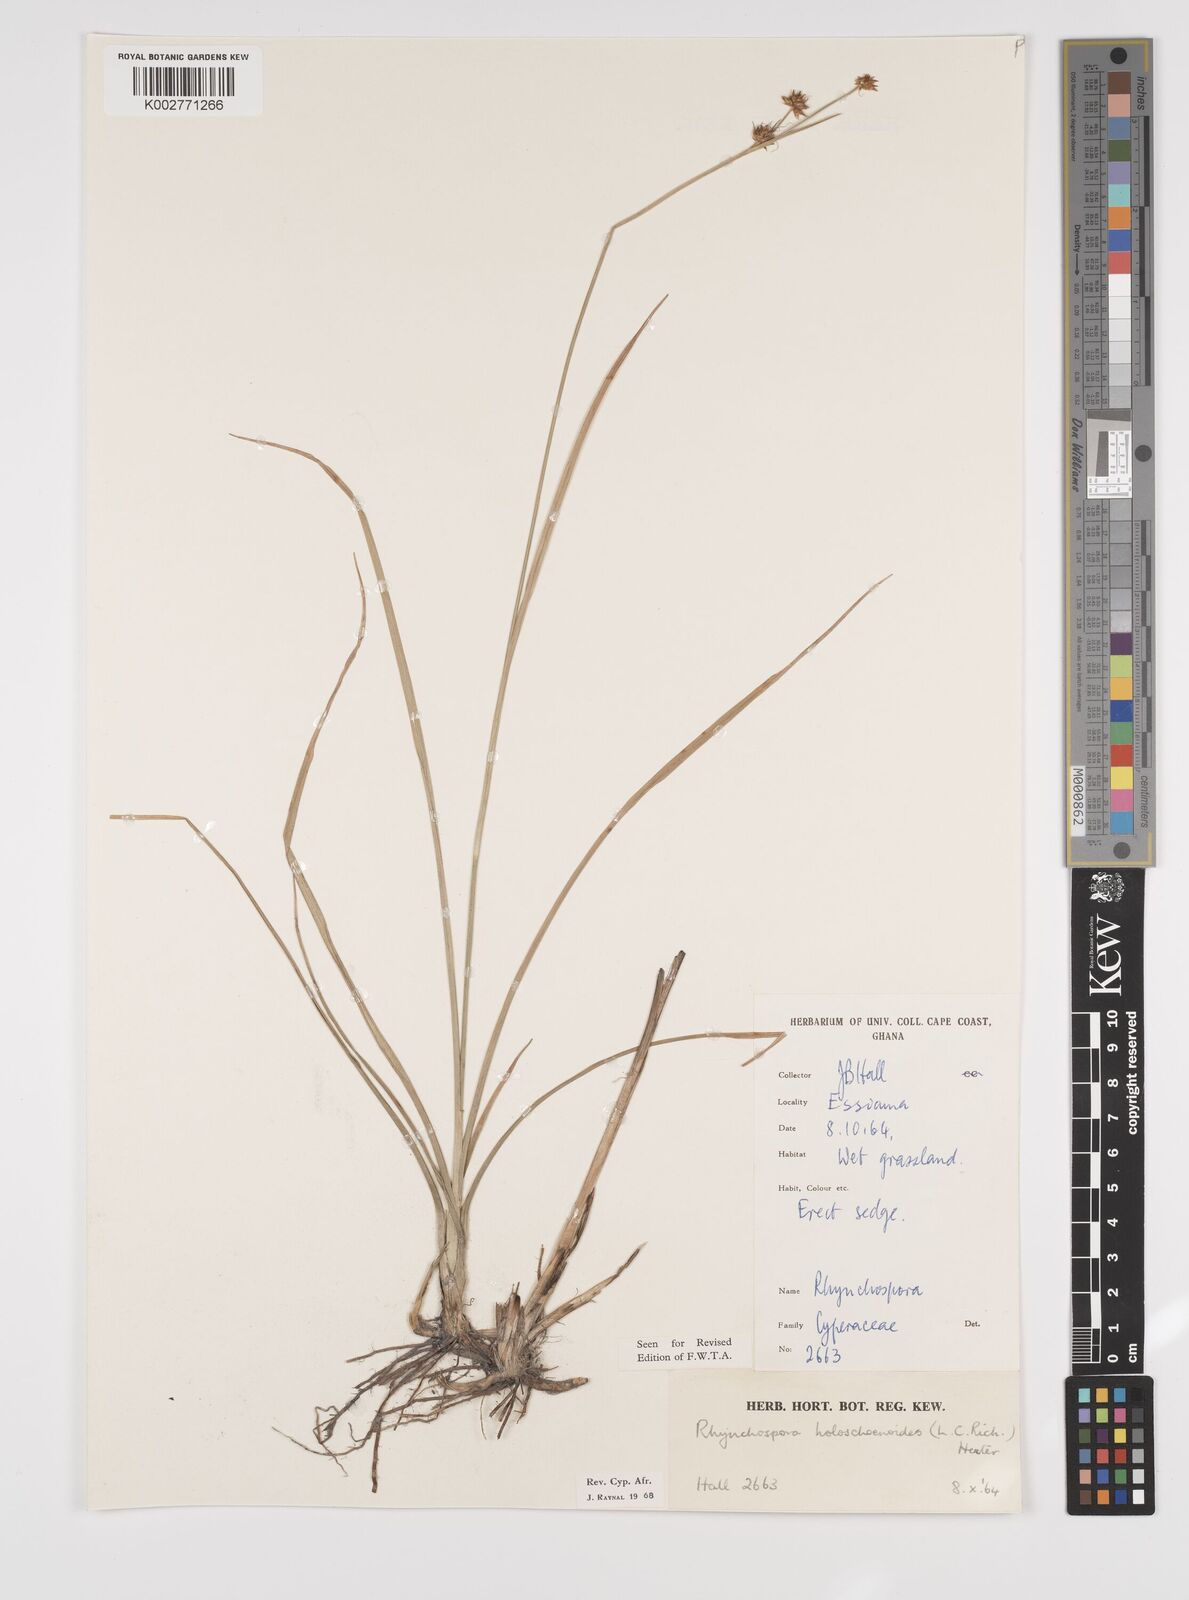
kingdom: Plantae
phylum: Tracheophyta
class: Liliopsida
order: Poales
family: Cyperaceae
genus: Rhynchospora
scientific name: Rhynchospora holoschoenoides
